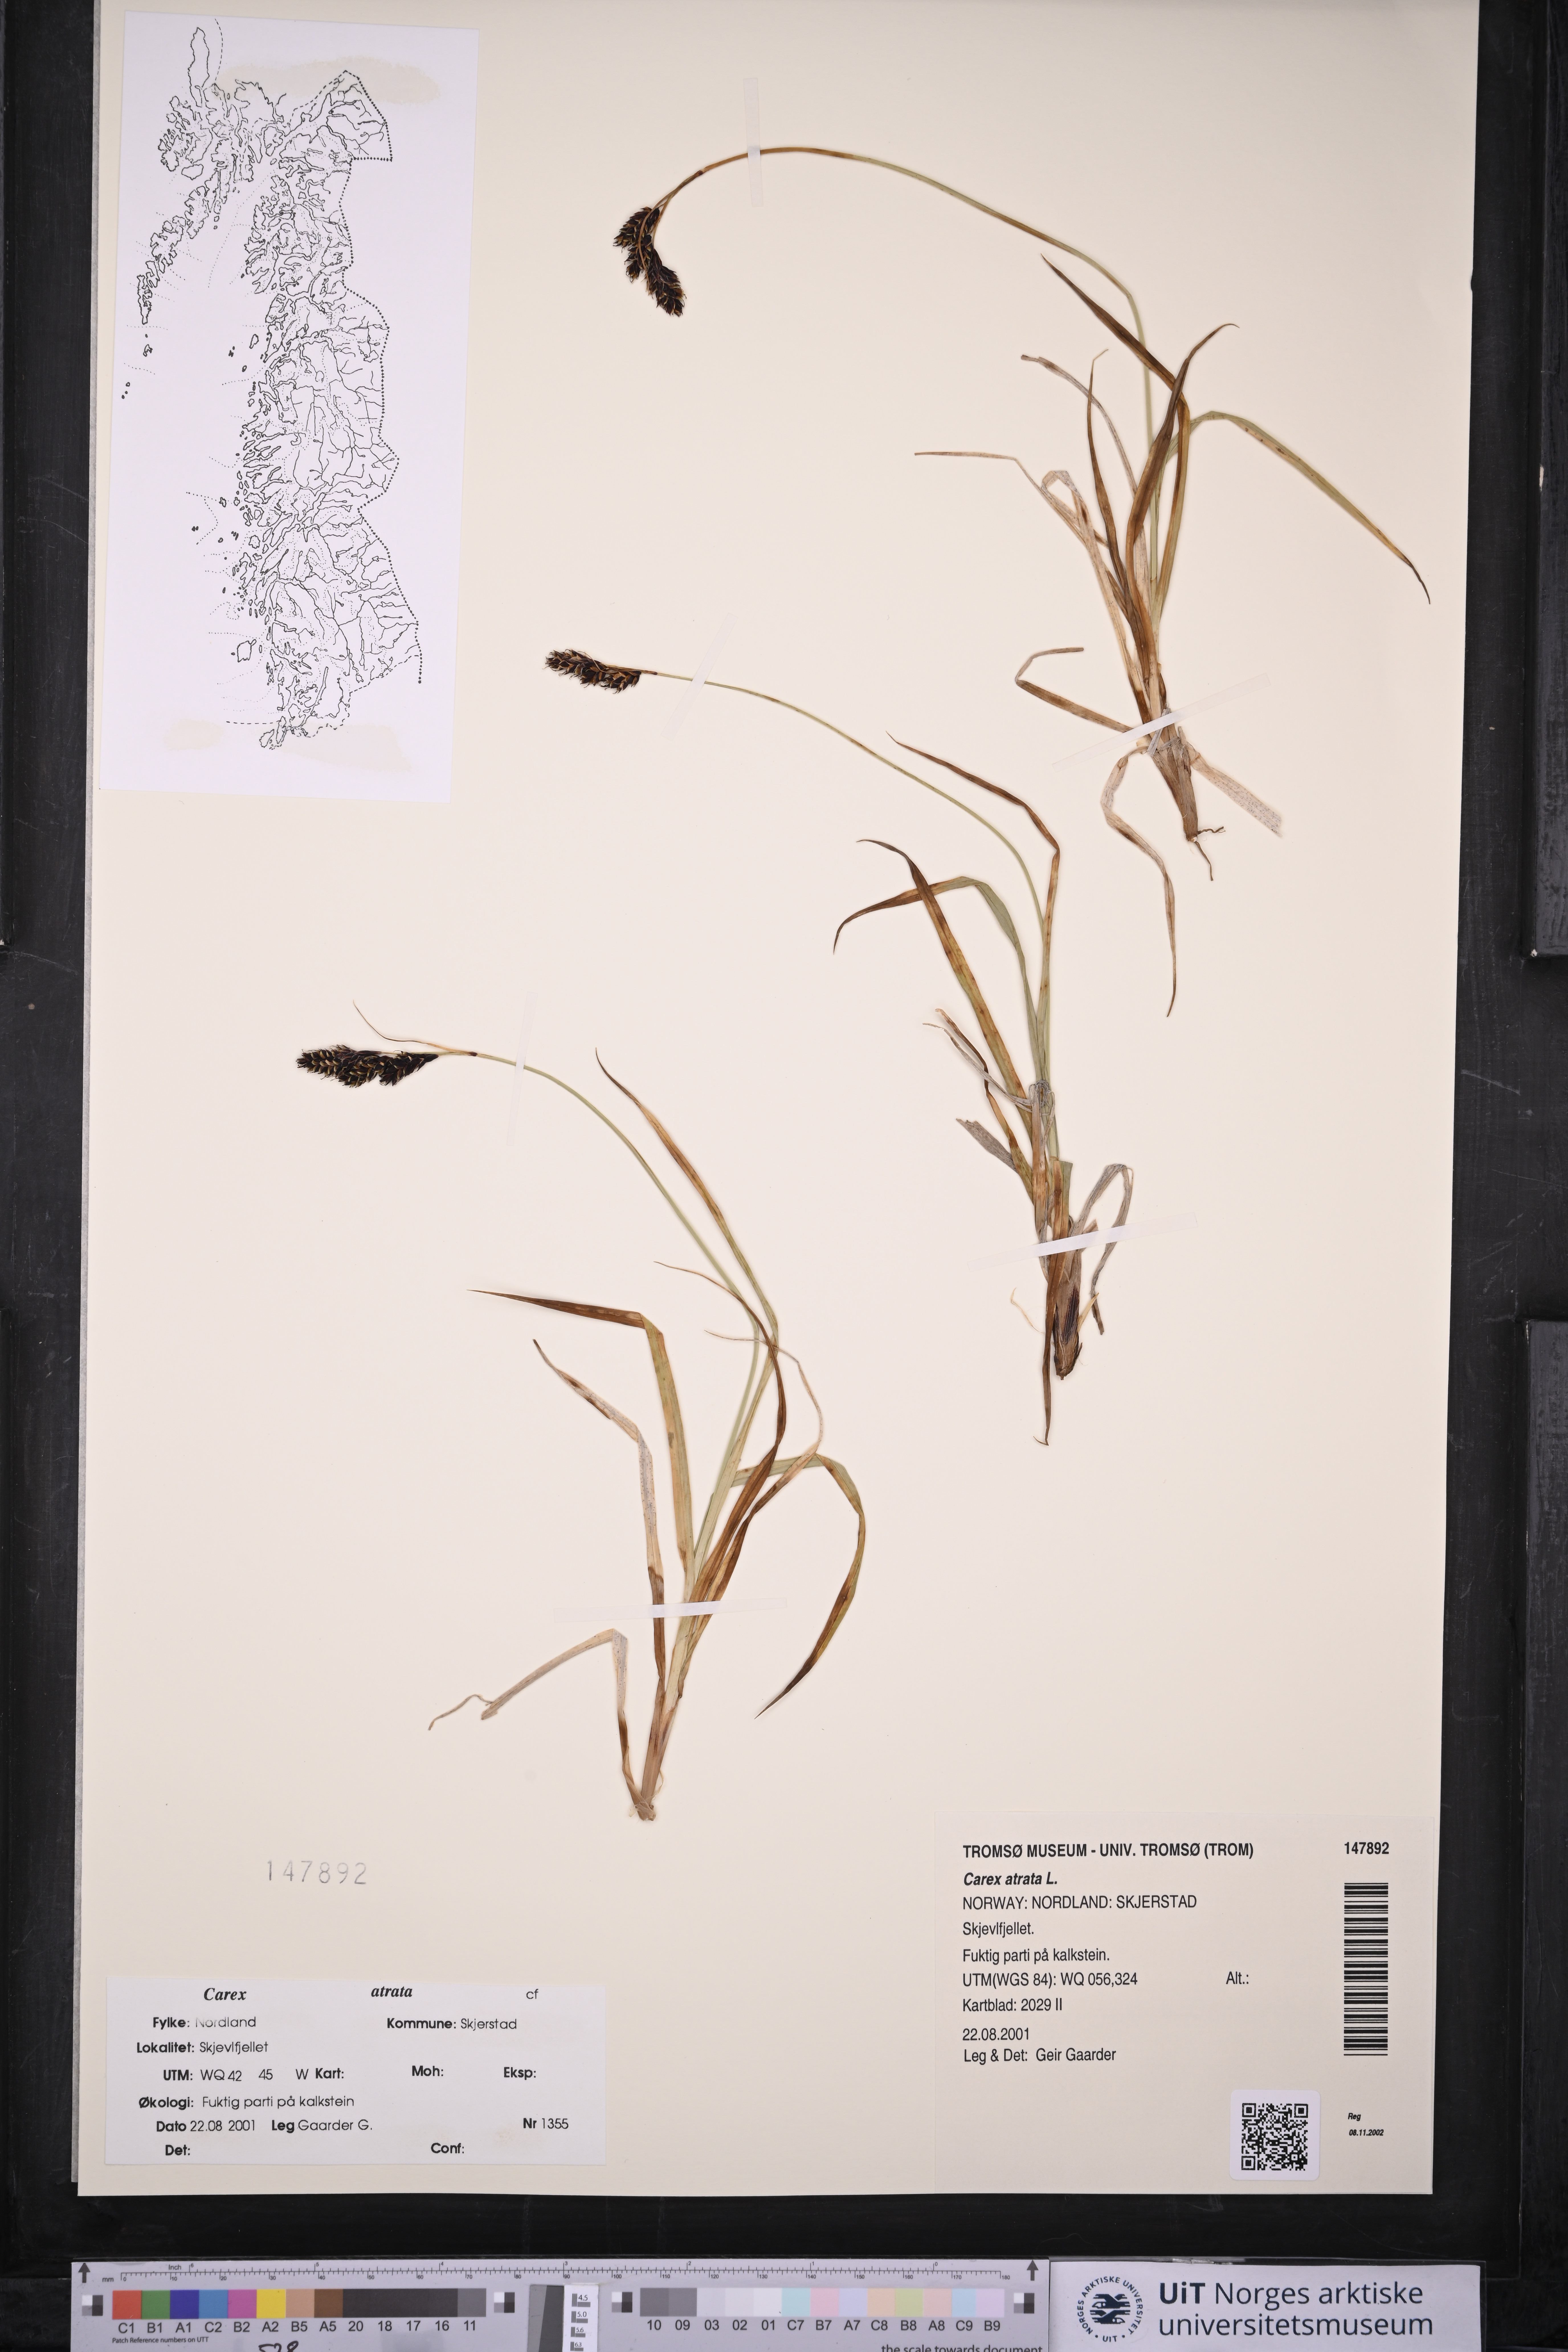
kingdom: Plantae
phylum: Tracheophyta
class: Liliopsida
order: Poales
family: Cyperaceae
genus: Carex
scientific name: Carex atrata
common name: Black alpine sedge
